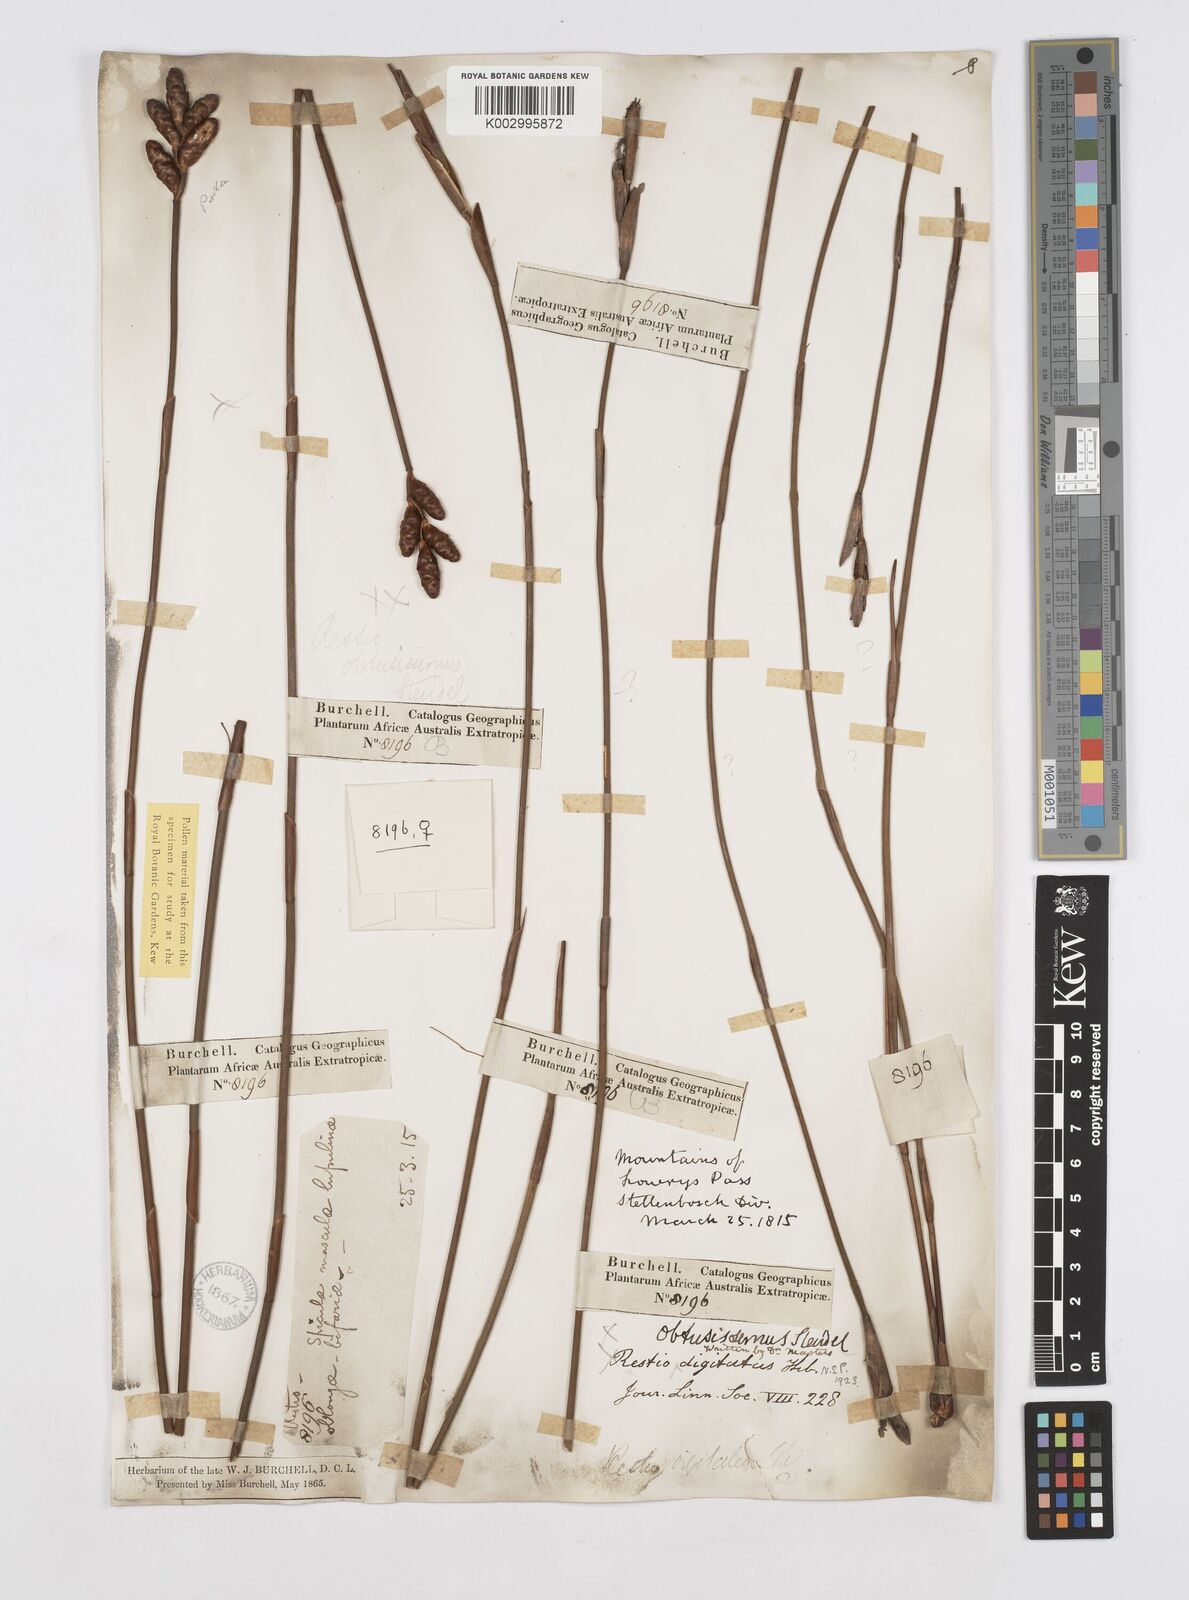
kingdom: Plantae
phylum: Tracheophyta
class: Liliopsida
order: Poales
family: Restionaceae
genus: Nevillea
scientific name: Nevillea obtusissimus
